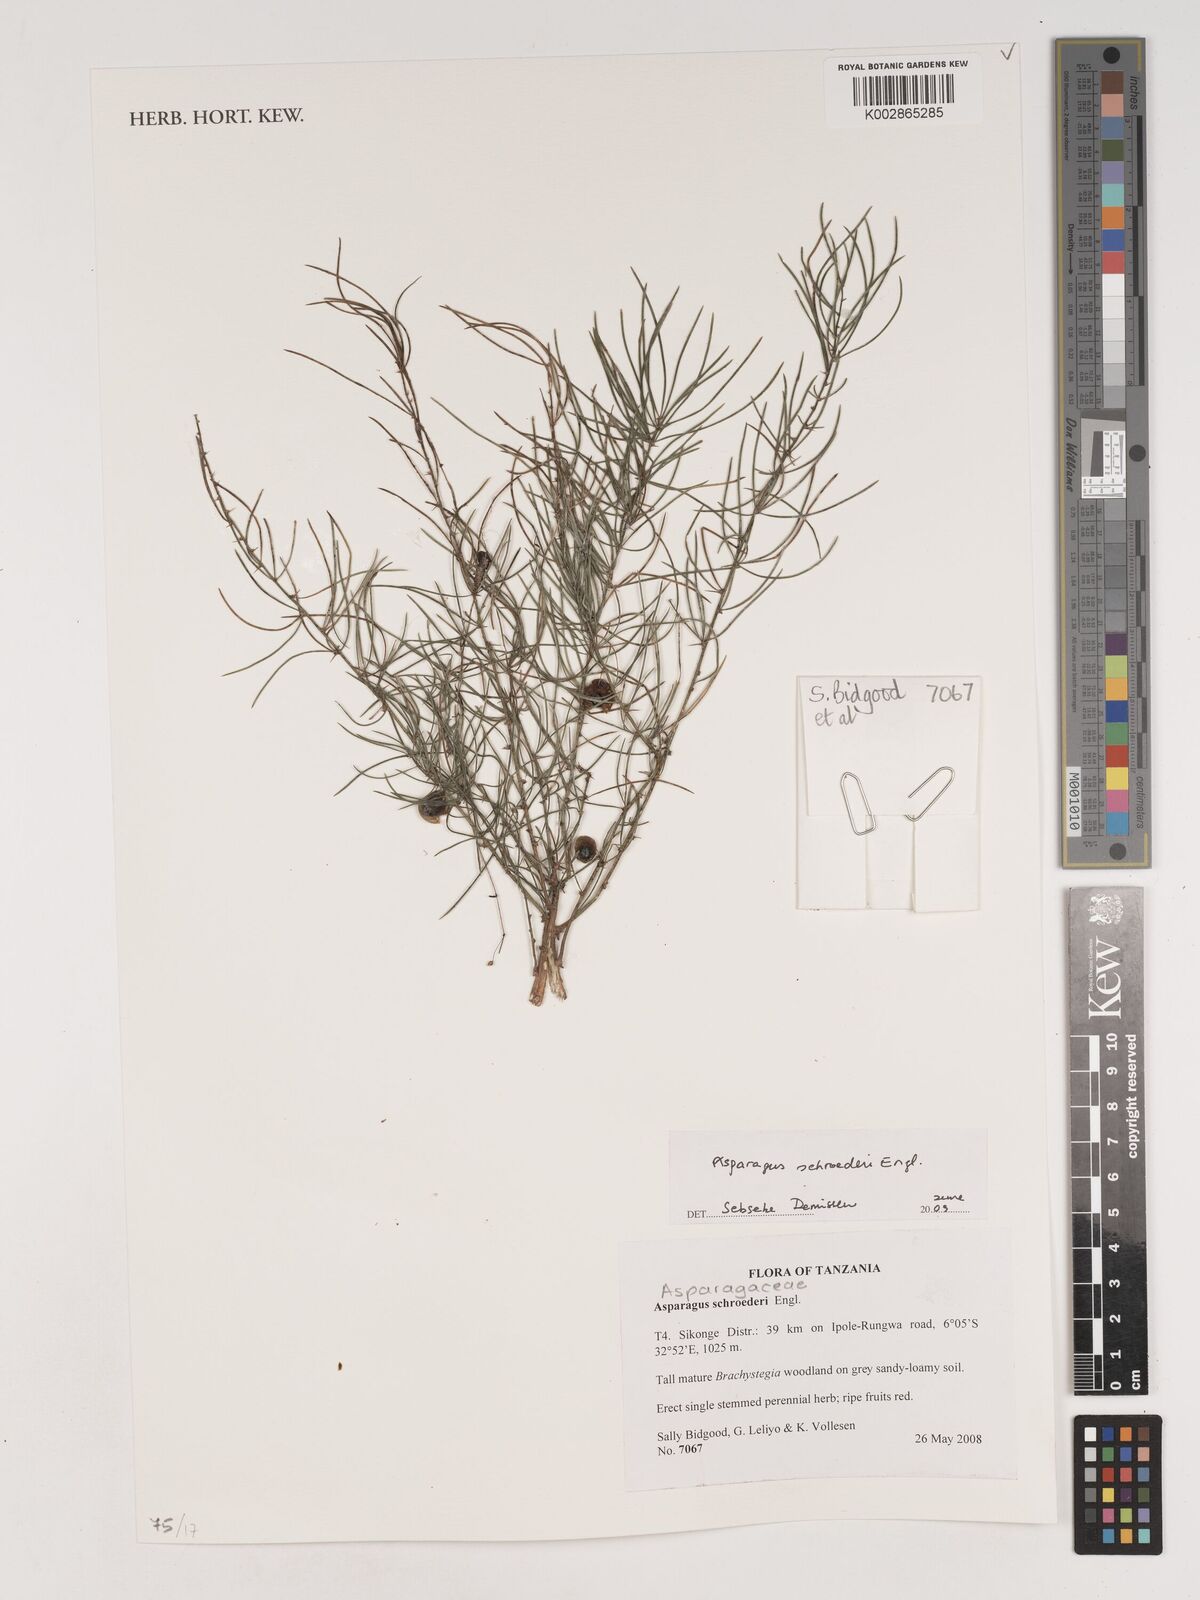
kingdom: Plantae
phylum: Tracheophyta
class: Liliopsida
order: Asparagales
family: Asparagaceae
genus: Asparagus
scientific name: Asparagus schroederi
